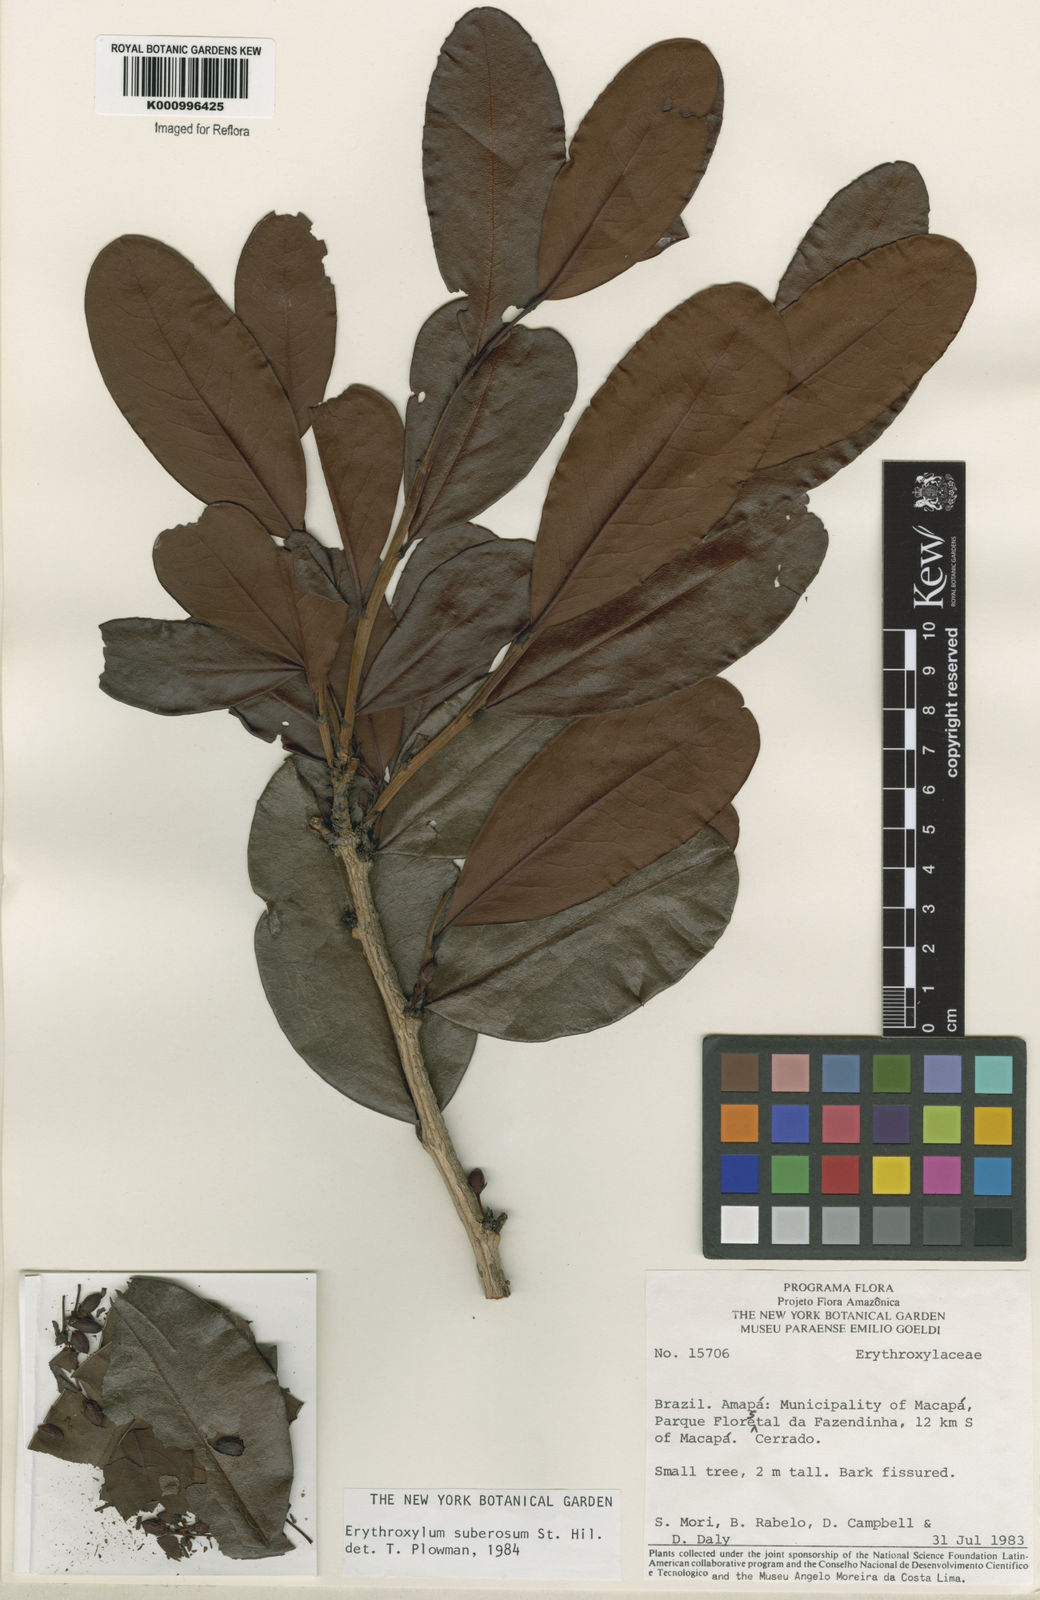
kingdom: Plantae
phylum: Tracheophyta
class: Magnoliopsida
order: Malpighiales
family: Erythroxylaceae
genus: Erythroxylum
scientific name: Erythroxylum suberosum
